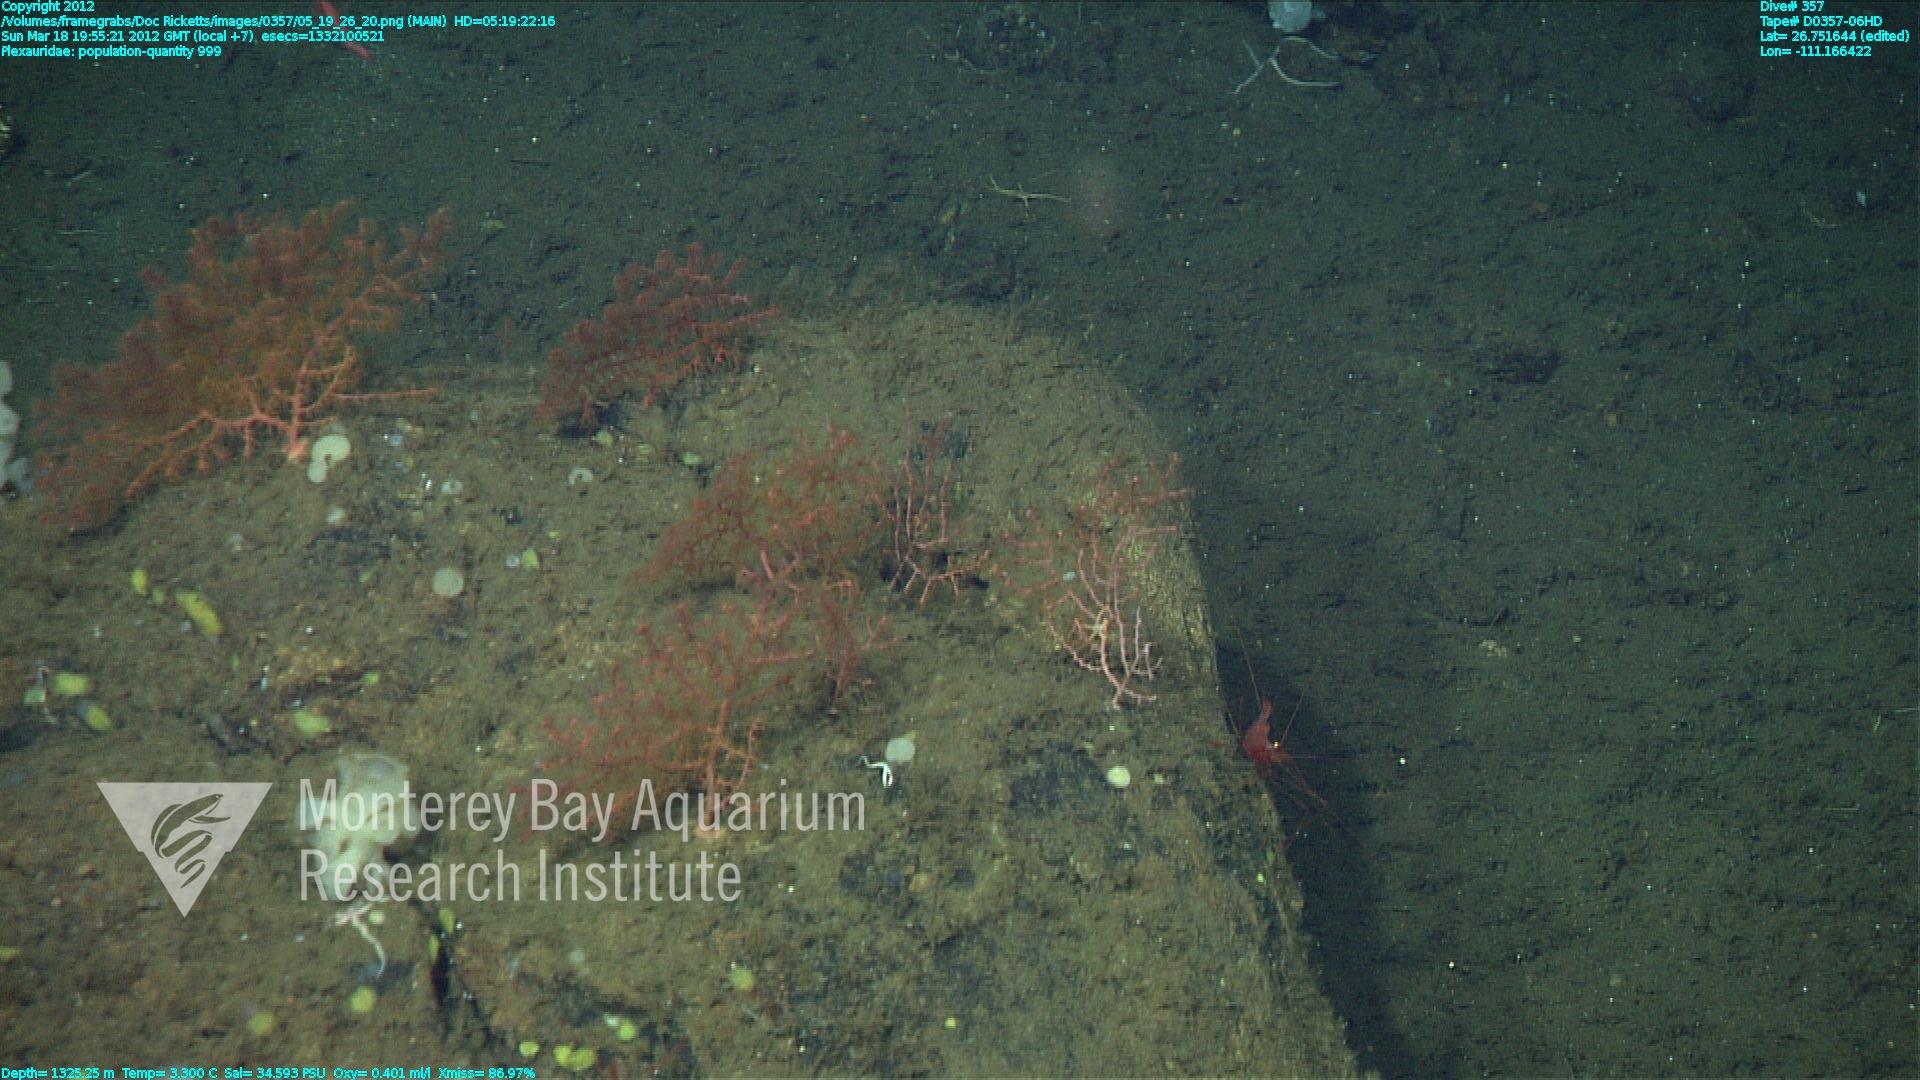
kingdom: Animalia
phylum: Cnidaria
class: Anthozoa
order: Malacalcyonacea
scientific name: Malacalcyonacea
